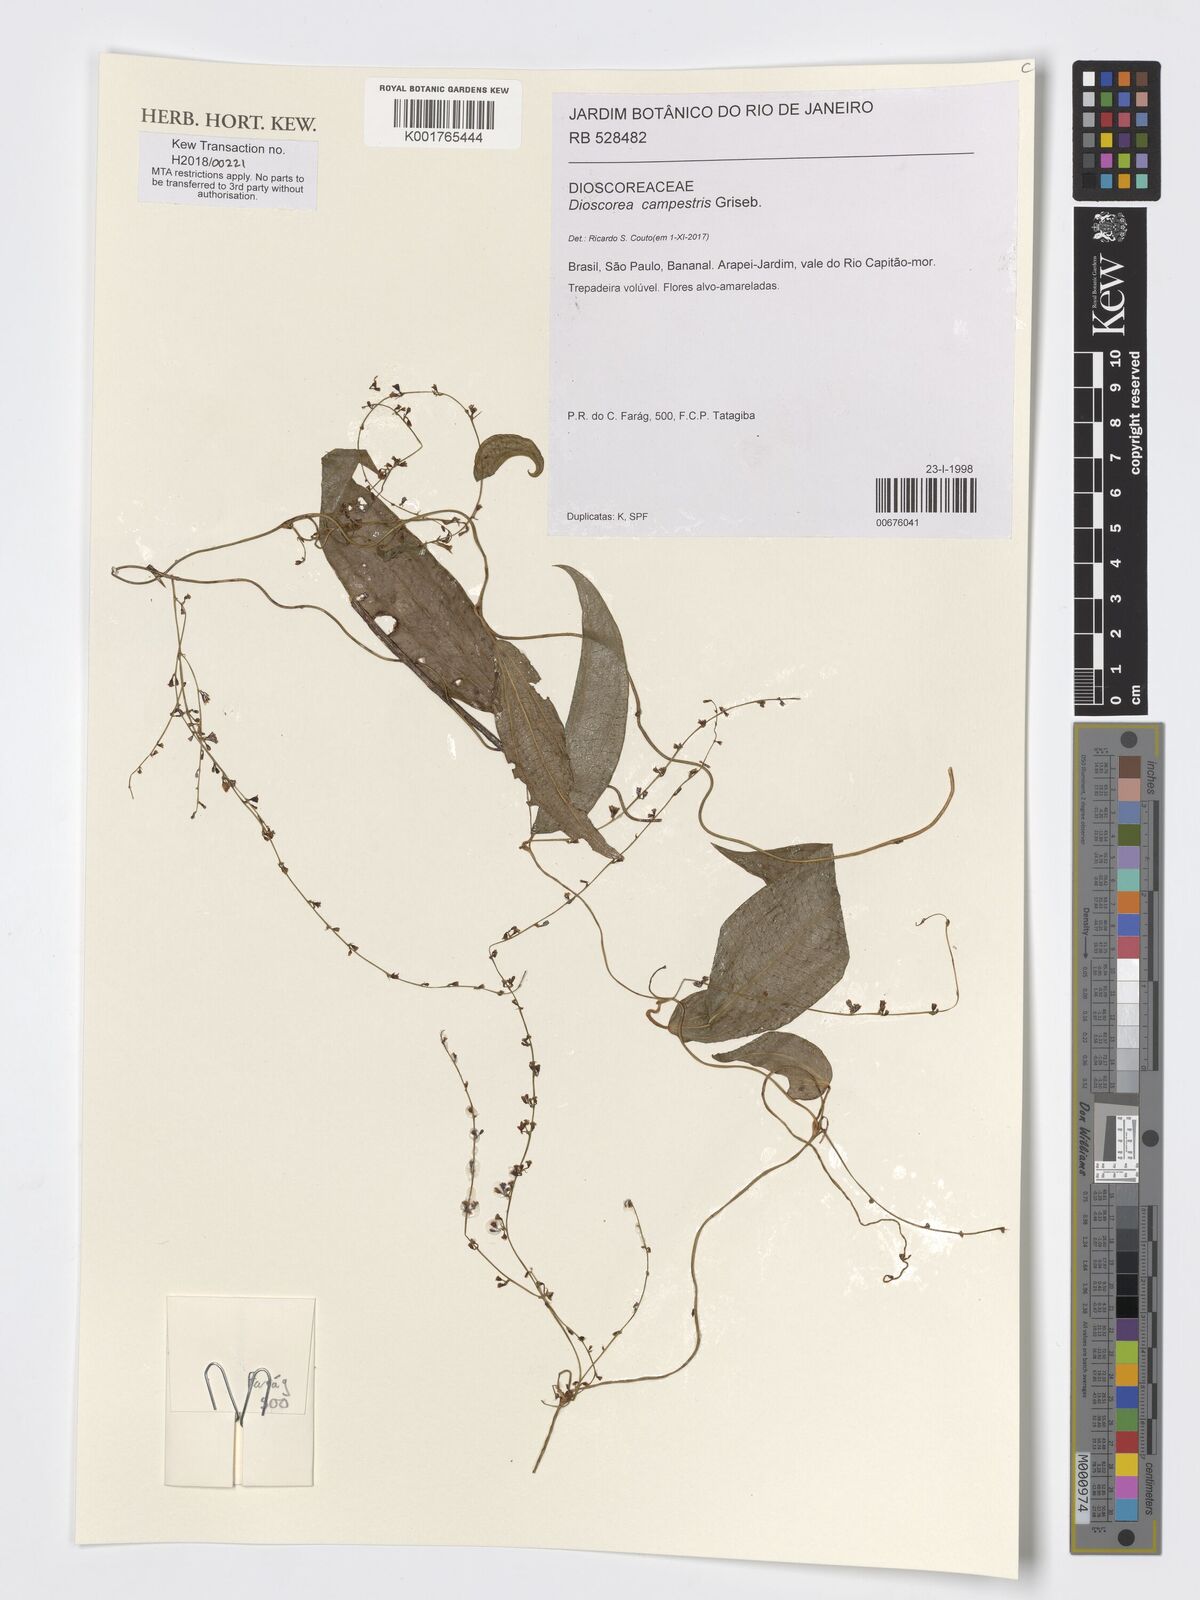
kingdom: Plantae
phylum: Tracheophyta
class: Liliopsida
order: Dioscoreales
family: Dioscoreaceae
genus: Dioscorea
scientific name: Dioscorea campestris
